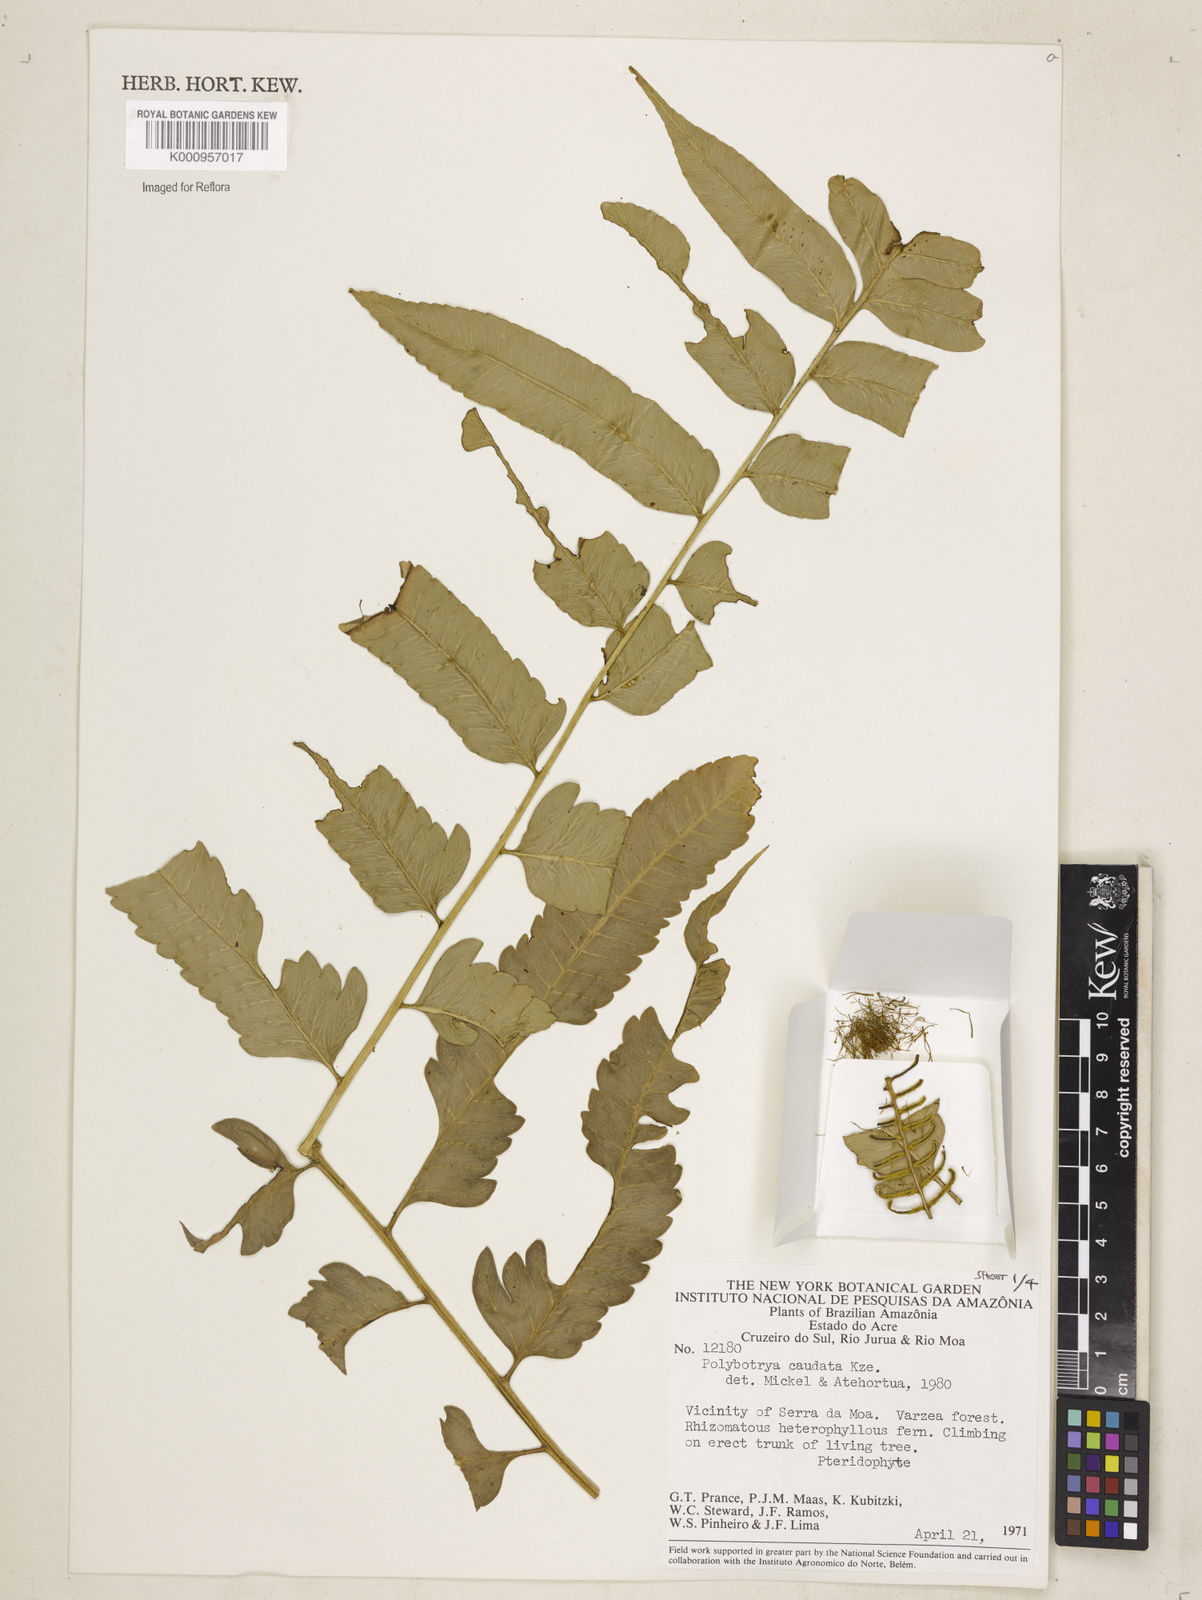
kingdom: Plantae
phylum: Tracheophyta
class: Polypodiopsida
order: Polypodiales
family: Dryopteridaceae
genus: Polybotrya
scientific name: Polybotrya caudata
